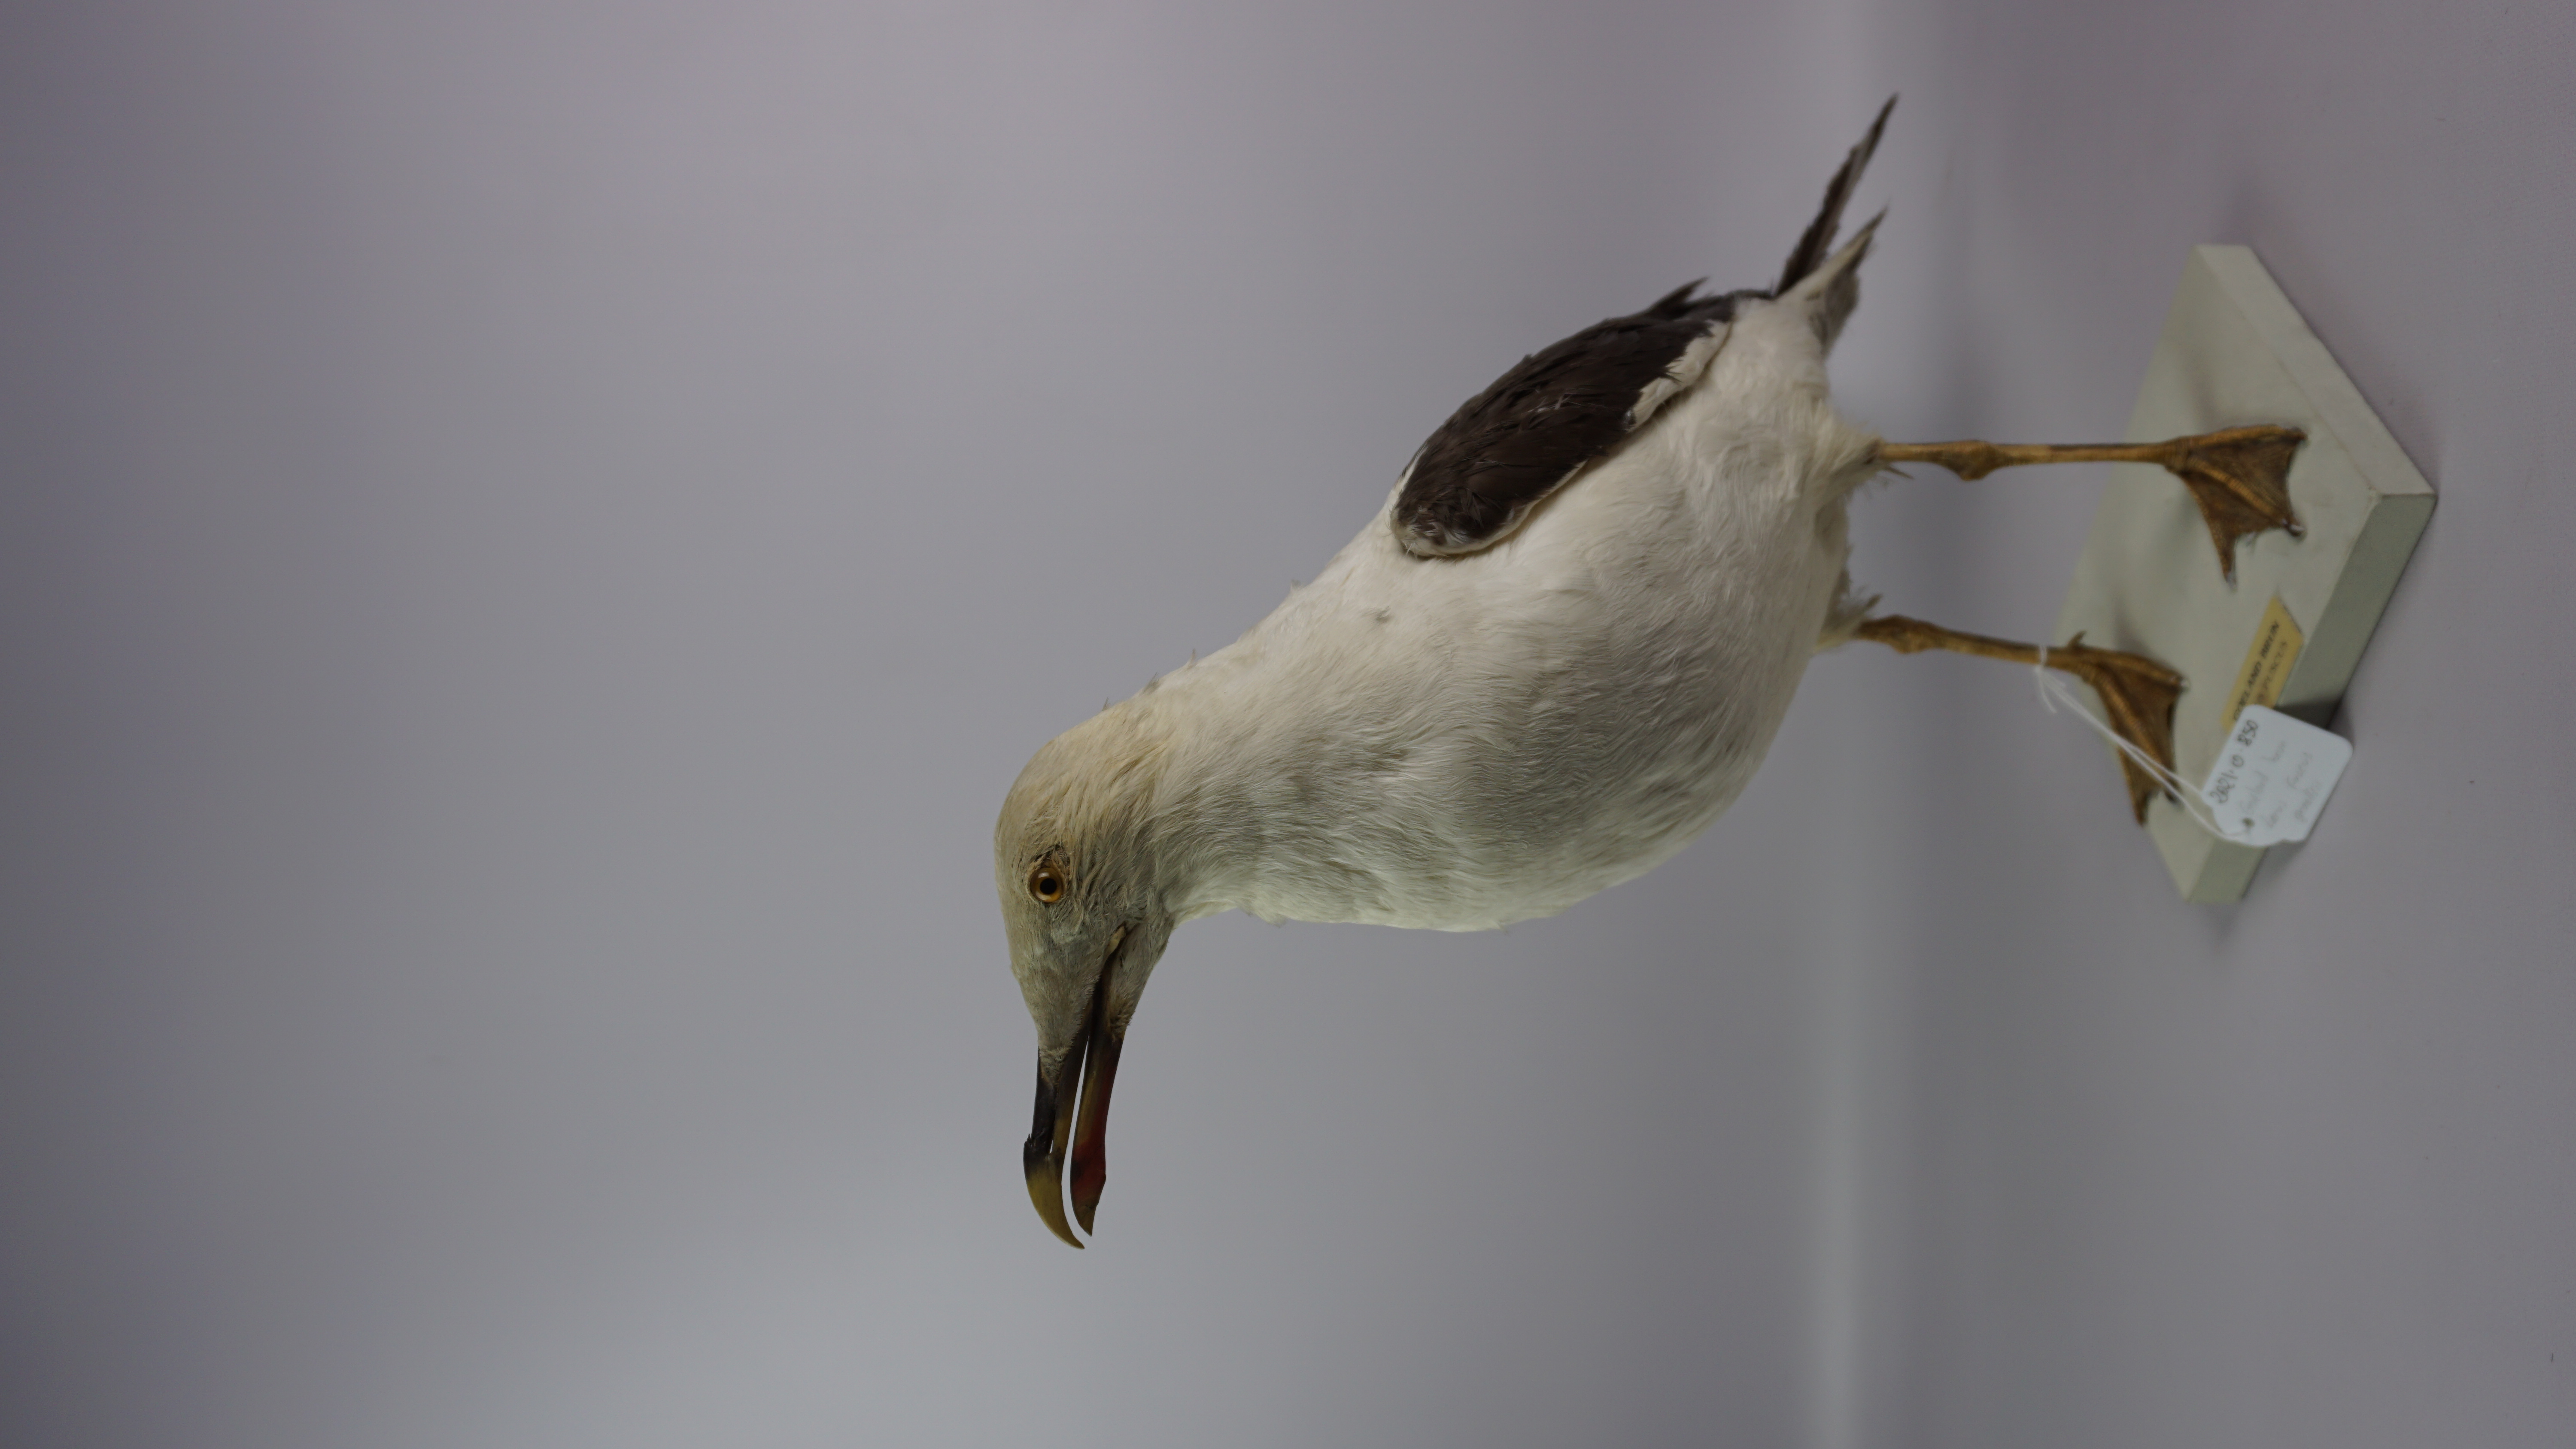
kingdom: Animalia
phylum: Chordata
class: Aves
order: Charadriiformes
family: Laridae
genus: Larus
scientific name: Larus fuscus
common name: Lesser black-backed gull
